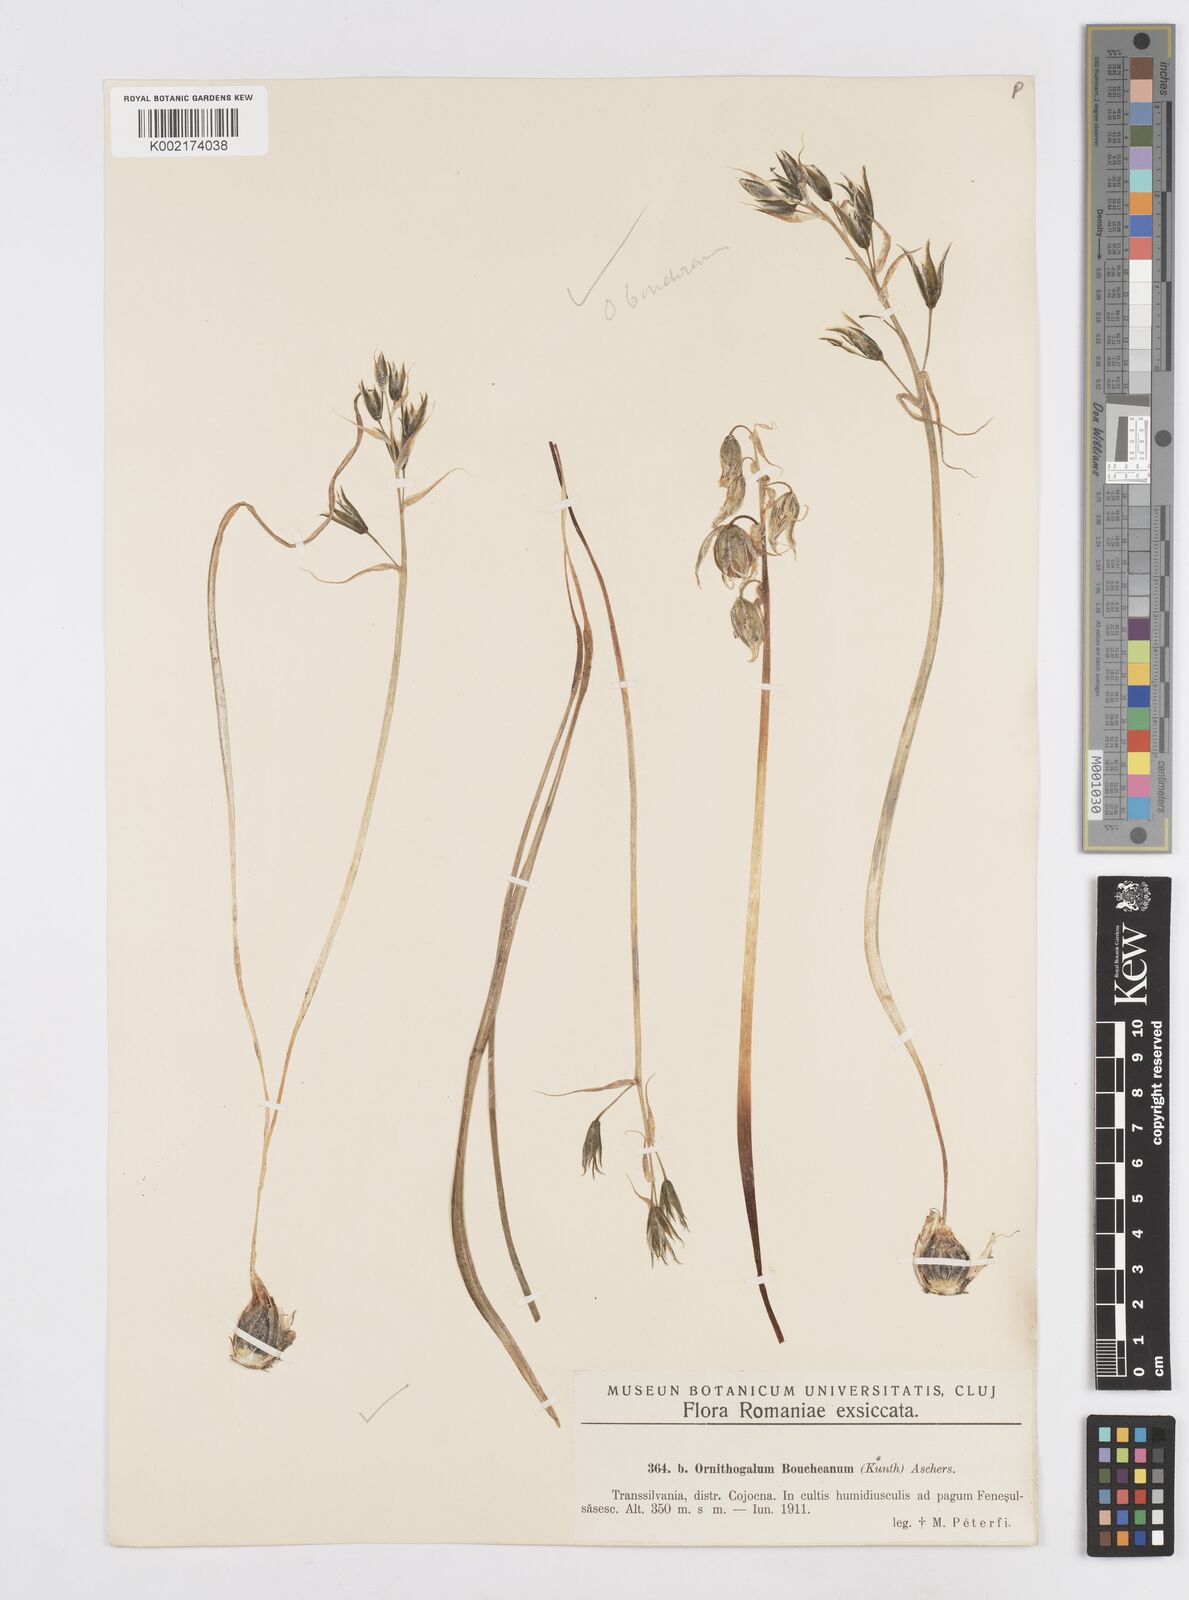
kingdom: Plantae
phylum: Tracheophyta
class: Liliopsida
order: Asparagales
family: Asparagaceae
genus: Ornithogalum
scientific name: Ornithogalum boucheanum
